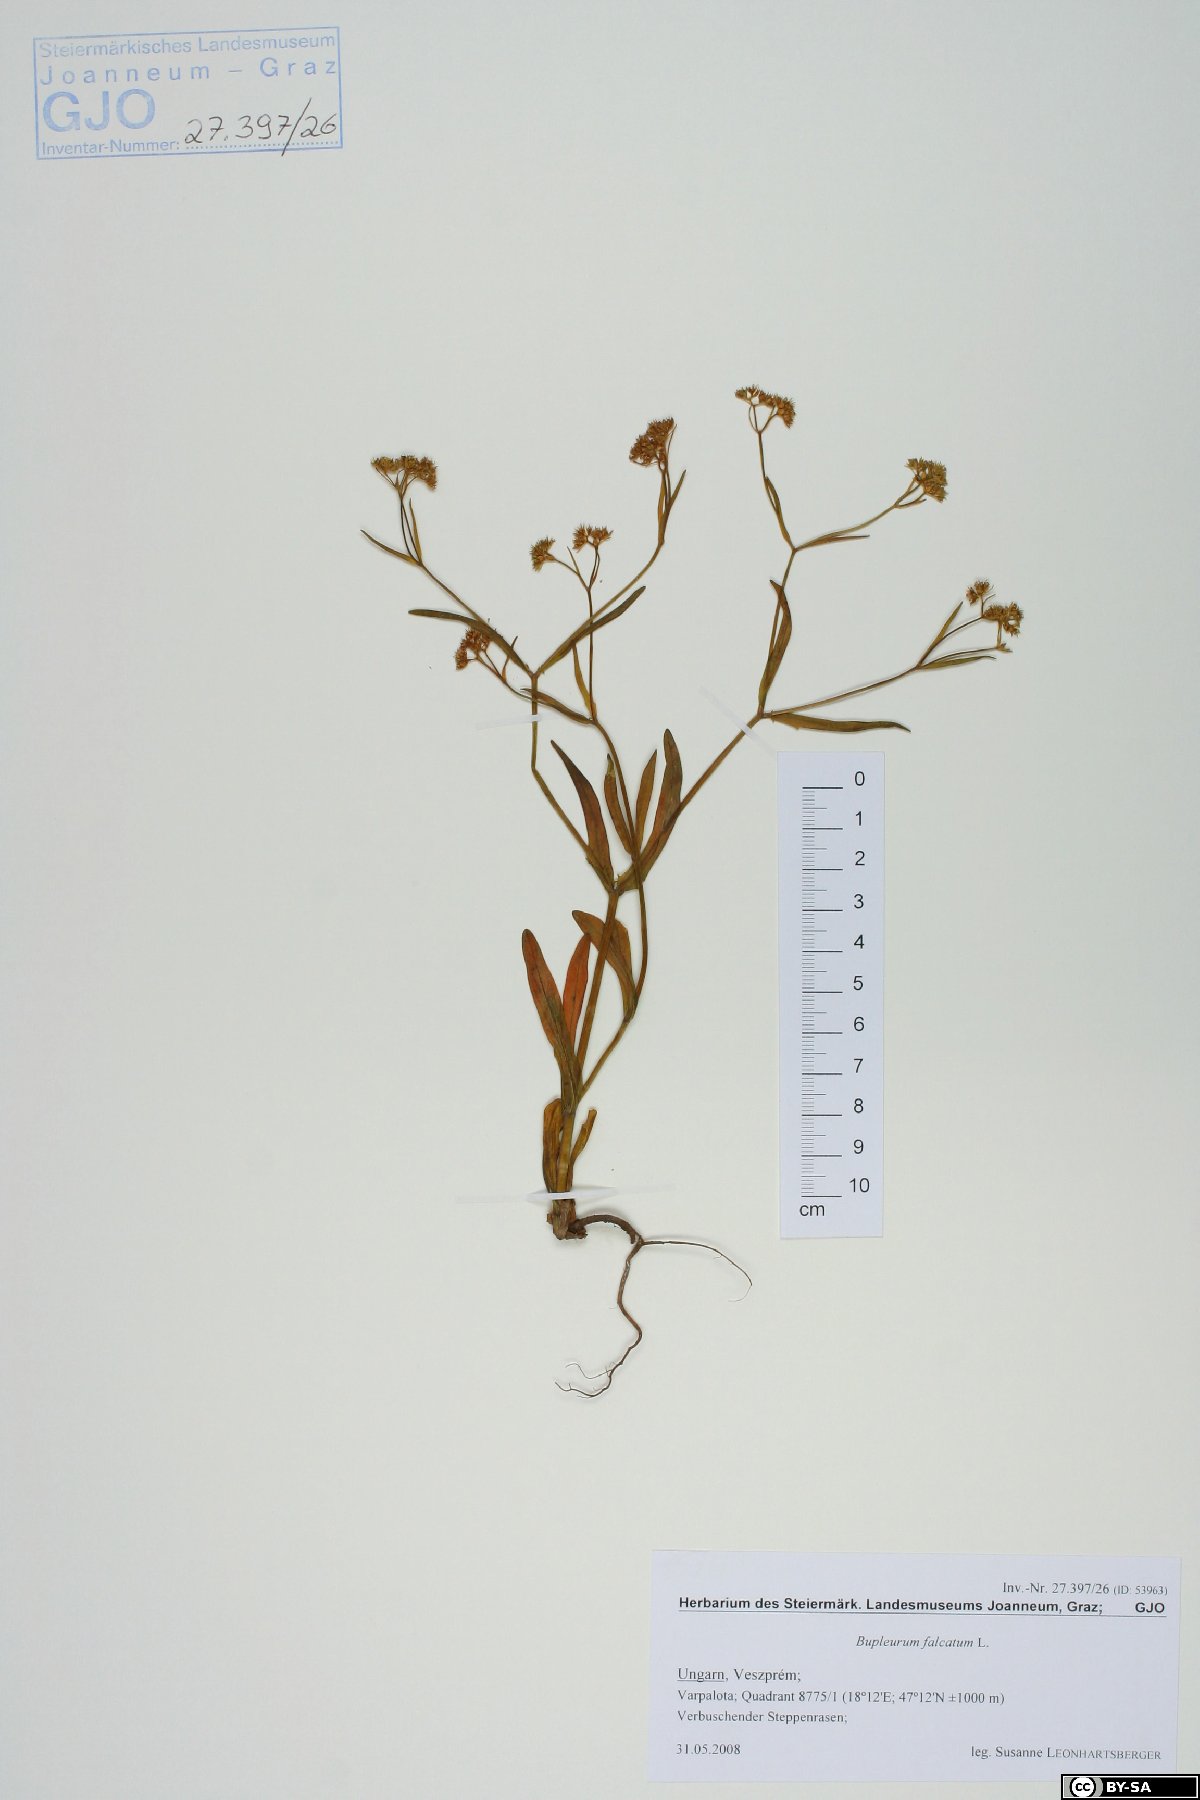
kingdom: Plantae
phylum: Tracheophyta
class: Magnoliopsida
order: Apiales
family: Apiaceae
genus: Bupleurum
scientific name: Bupleurum falcatum
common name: Sickle-leaved hare's-ear
